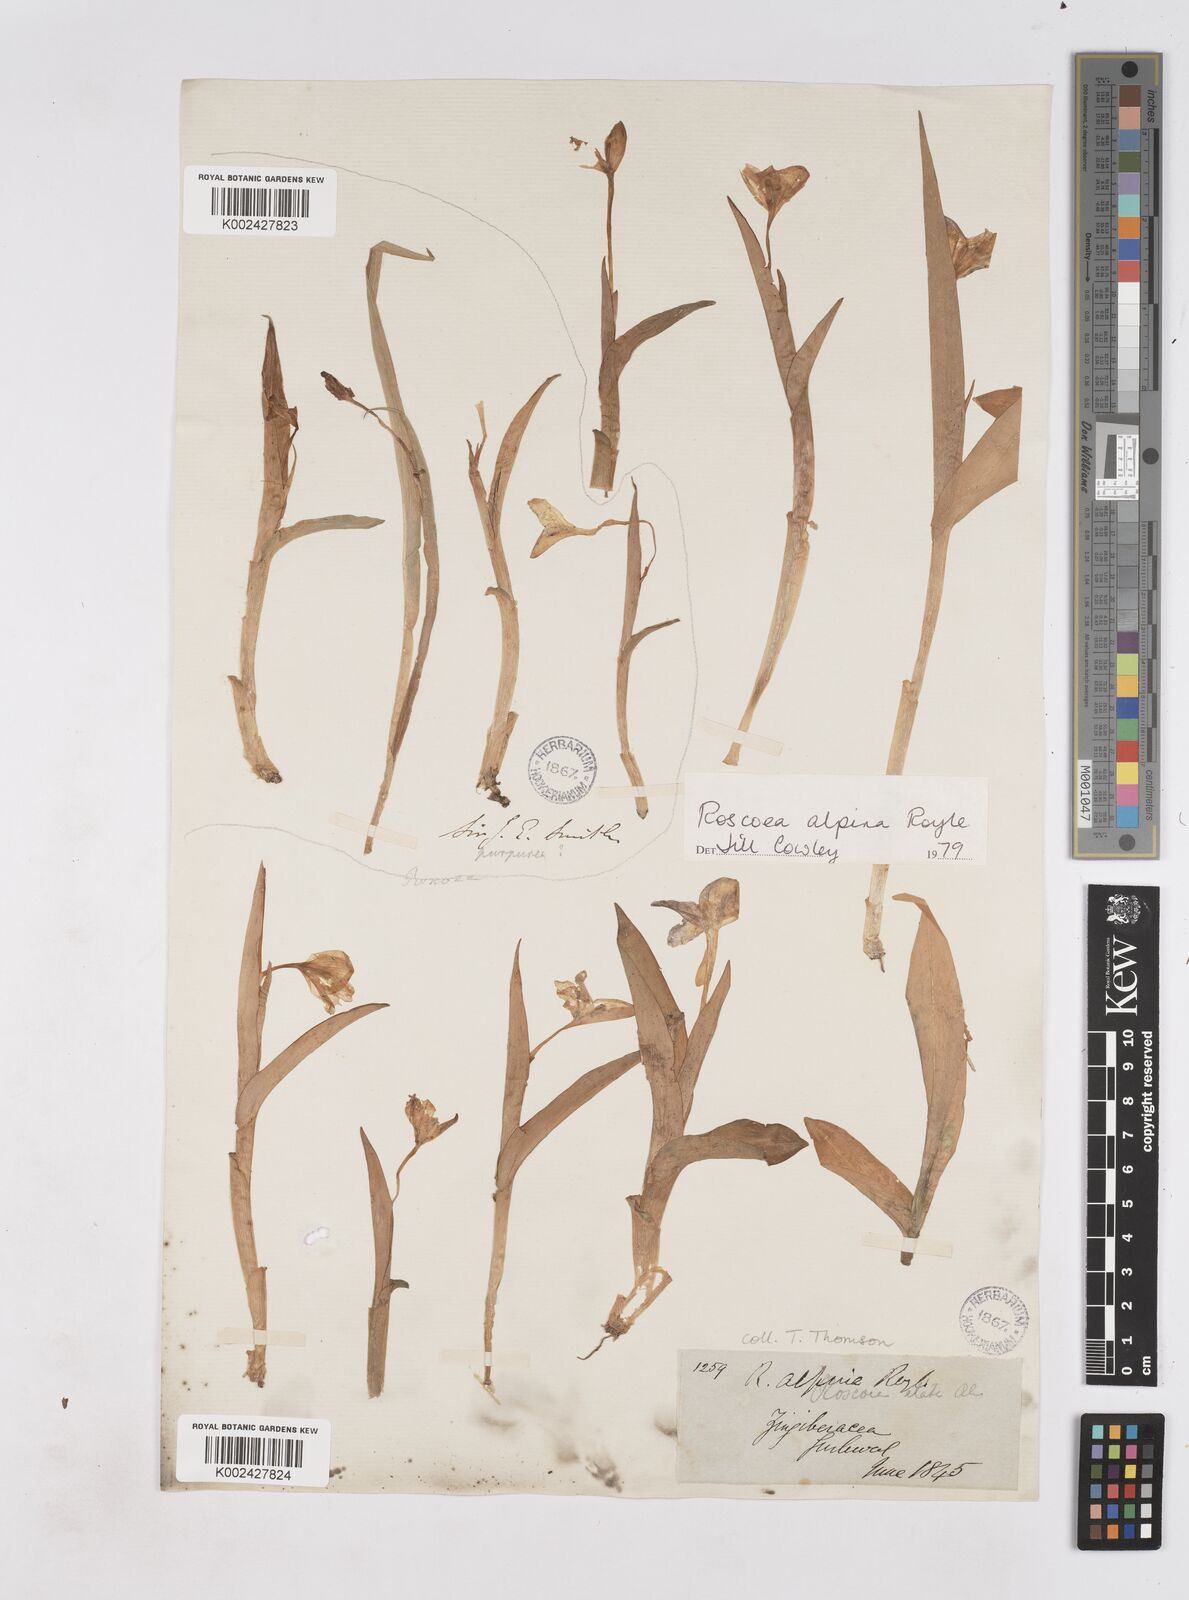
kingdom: Plantae
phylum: Tracheophyta
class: Liliopsida
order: Zingiberales
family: Zingiberaceae
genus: Roscoea
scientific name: Roscoea alpina
